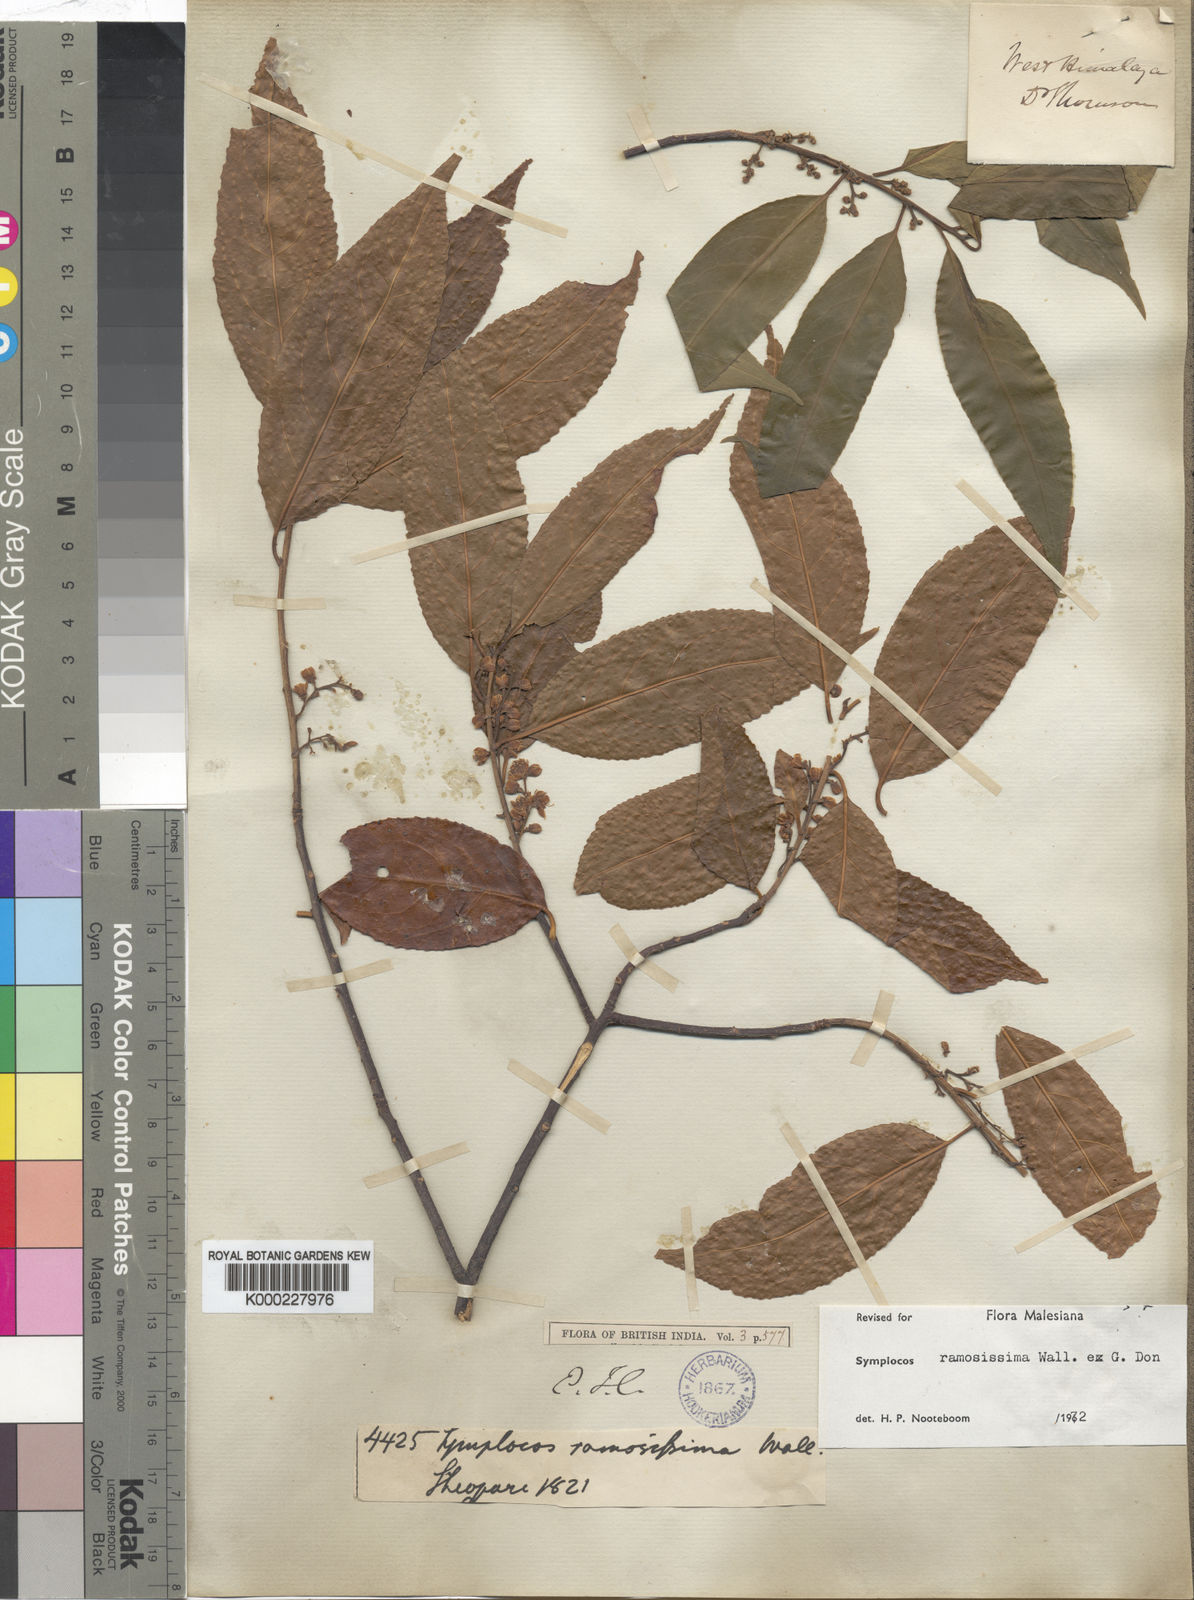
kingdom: Plantae
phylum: Tracheophyta
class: Magnoliopsida
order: Ericales
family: Symplocaceae
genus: Symplocos
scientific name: Symplocos ramosissima
